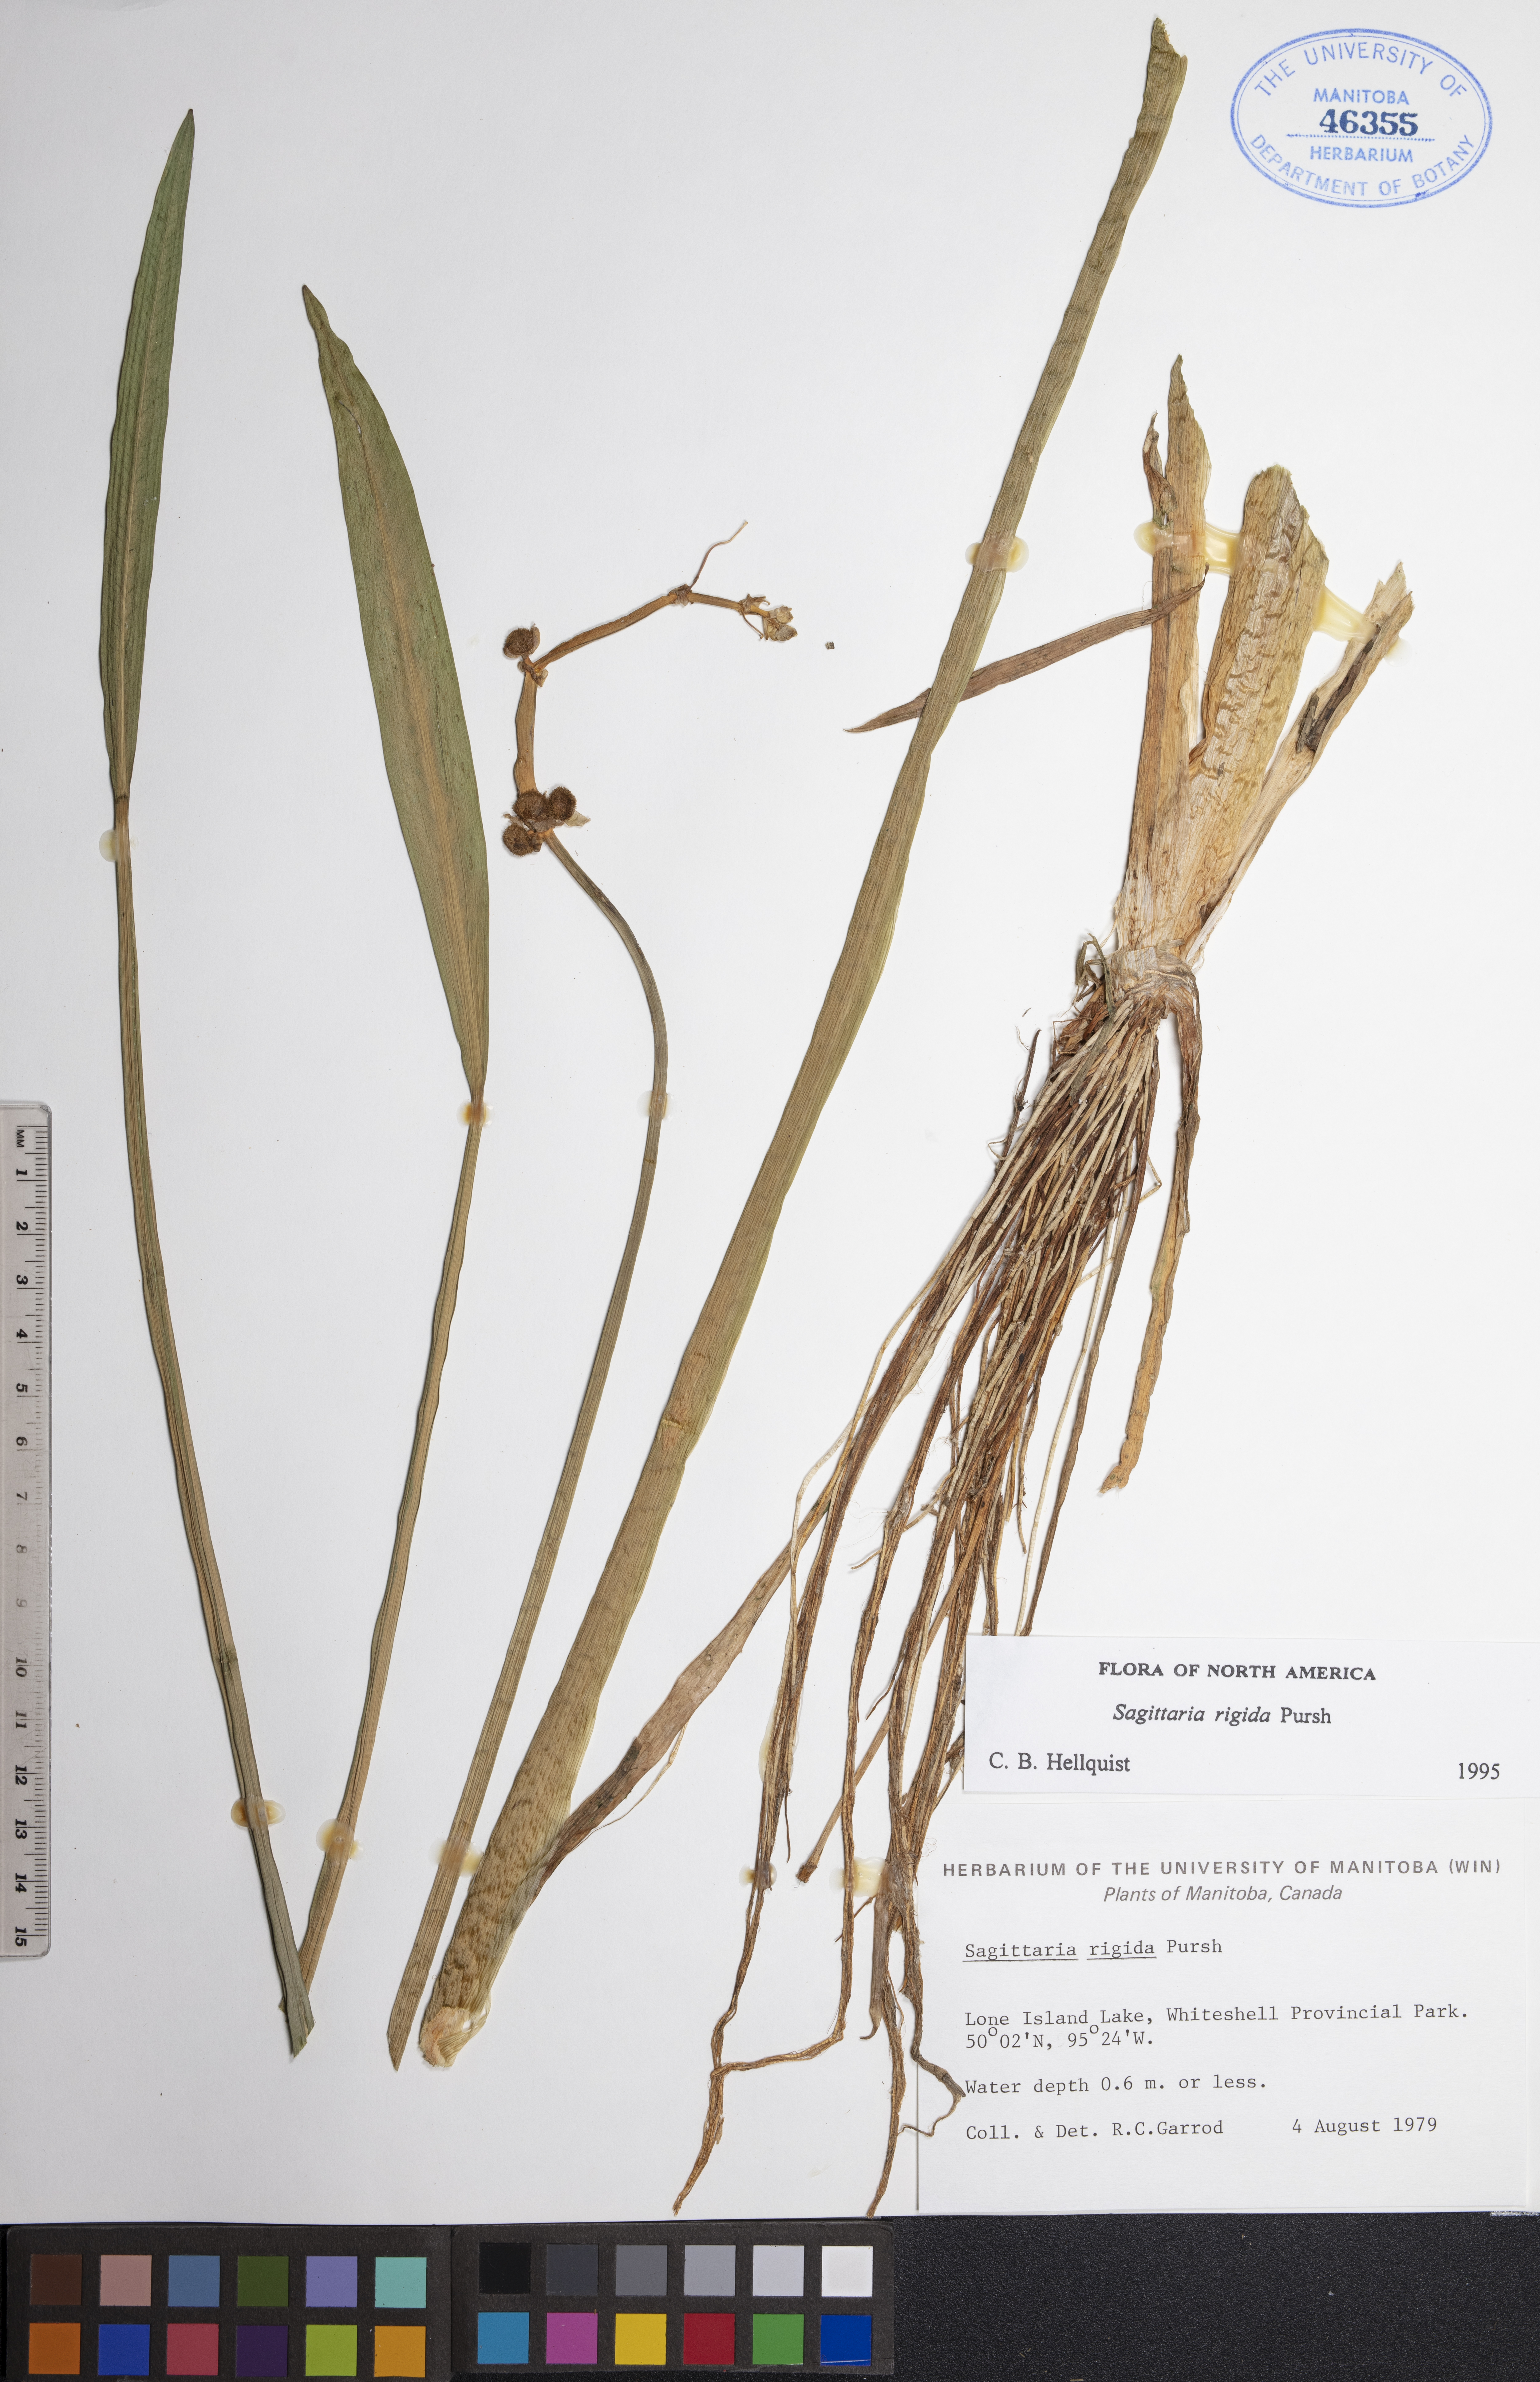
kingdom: Plantae
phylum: Tracheophyta
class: Liliopsida
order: Alismatales
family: Alismataceae
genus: Sagittaria
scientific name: Sagittaria rigida
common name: Canadian arrowhead
